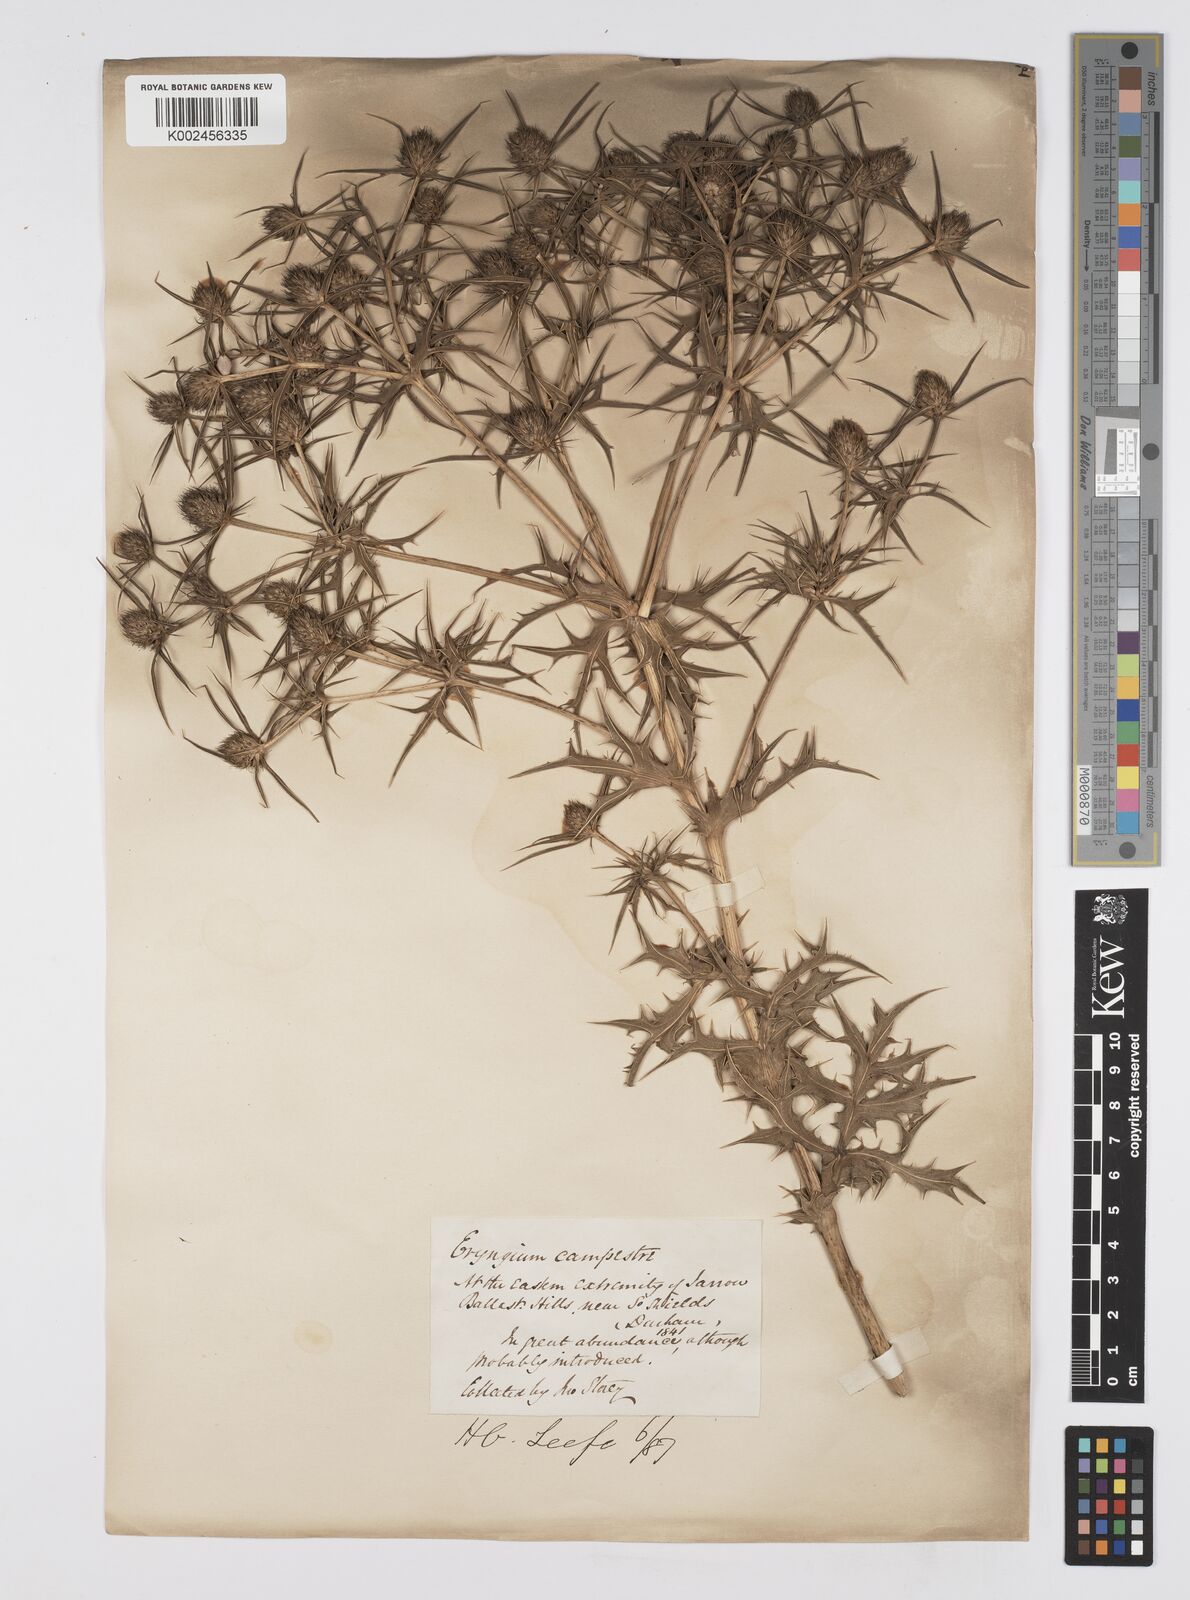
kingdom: Plantae
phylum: Tracheophyta
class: Magnoliopsida
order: Apiales
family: Apiaceae
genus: Eryngium
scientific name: Eryngium campestre
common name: Field eryngo
